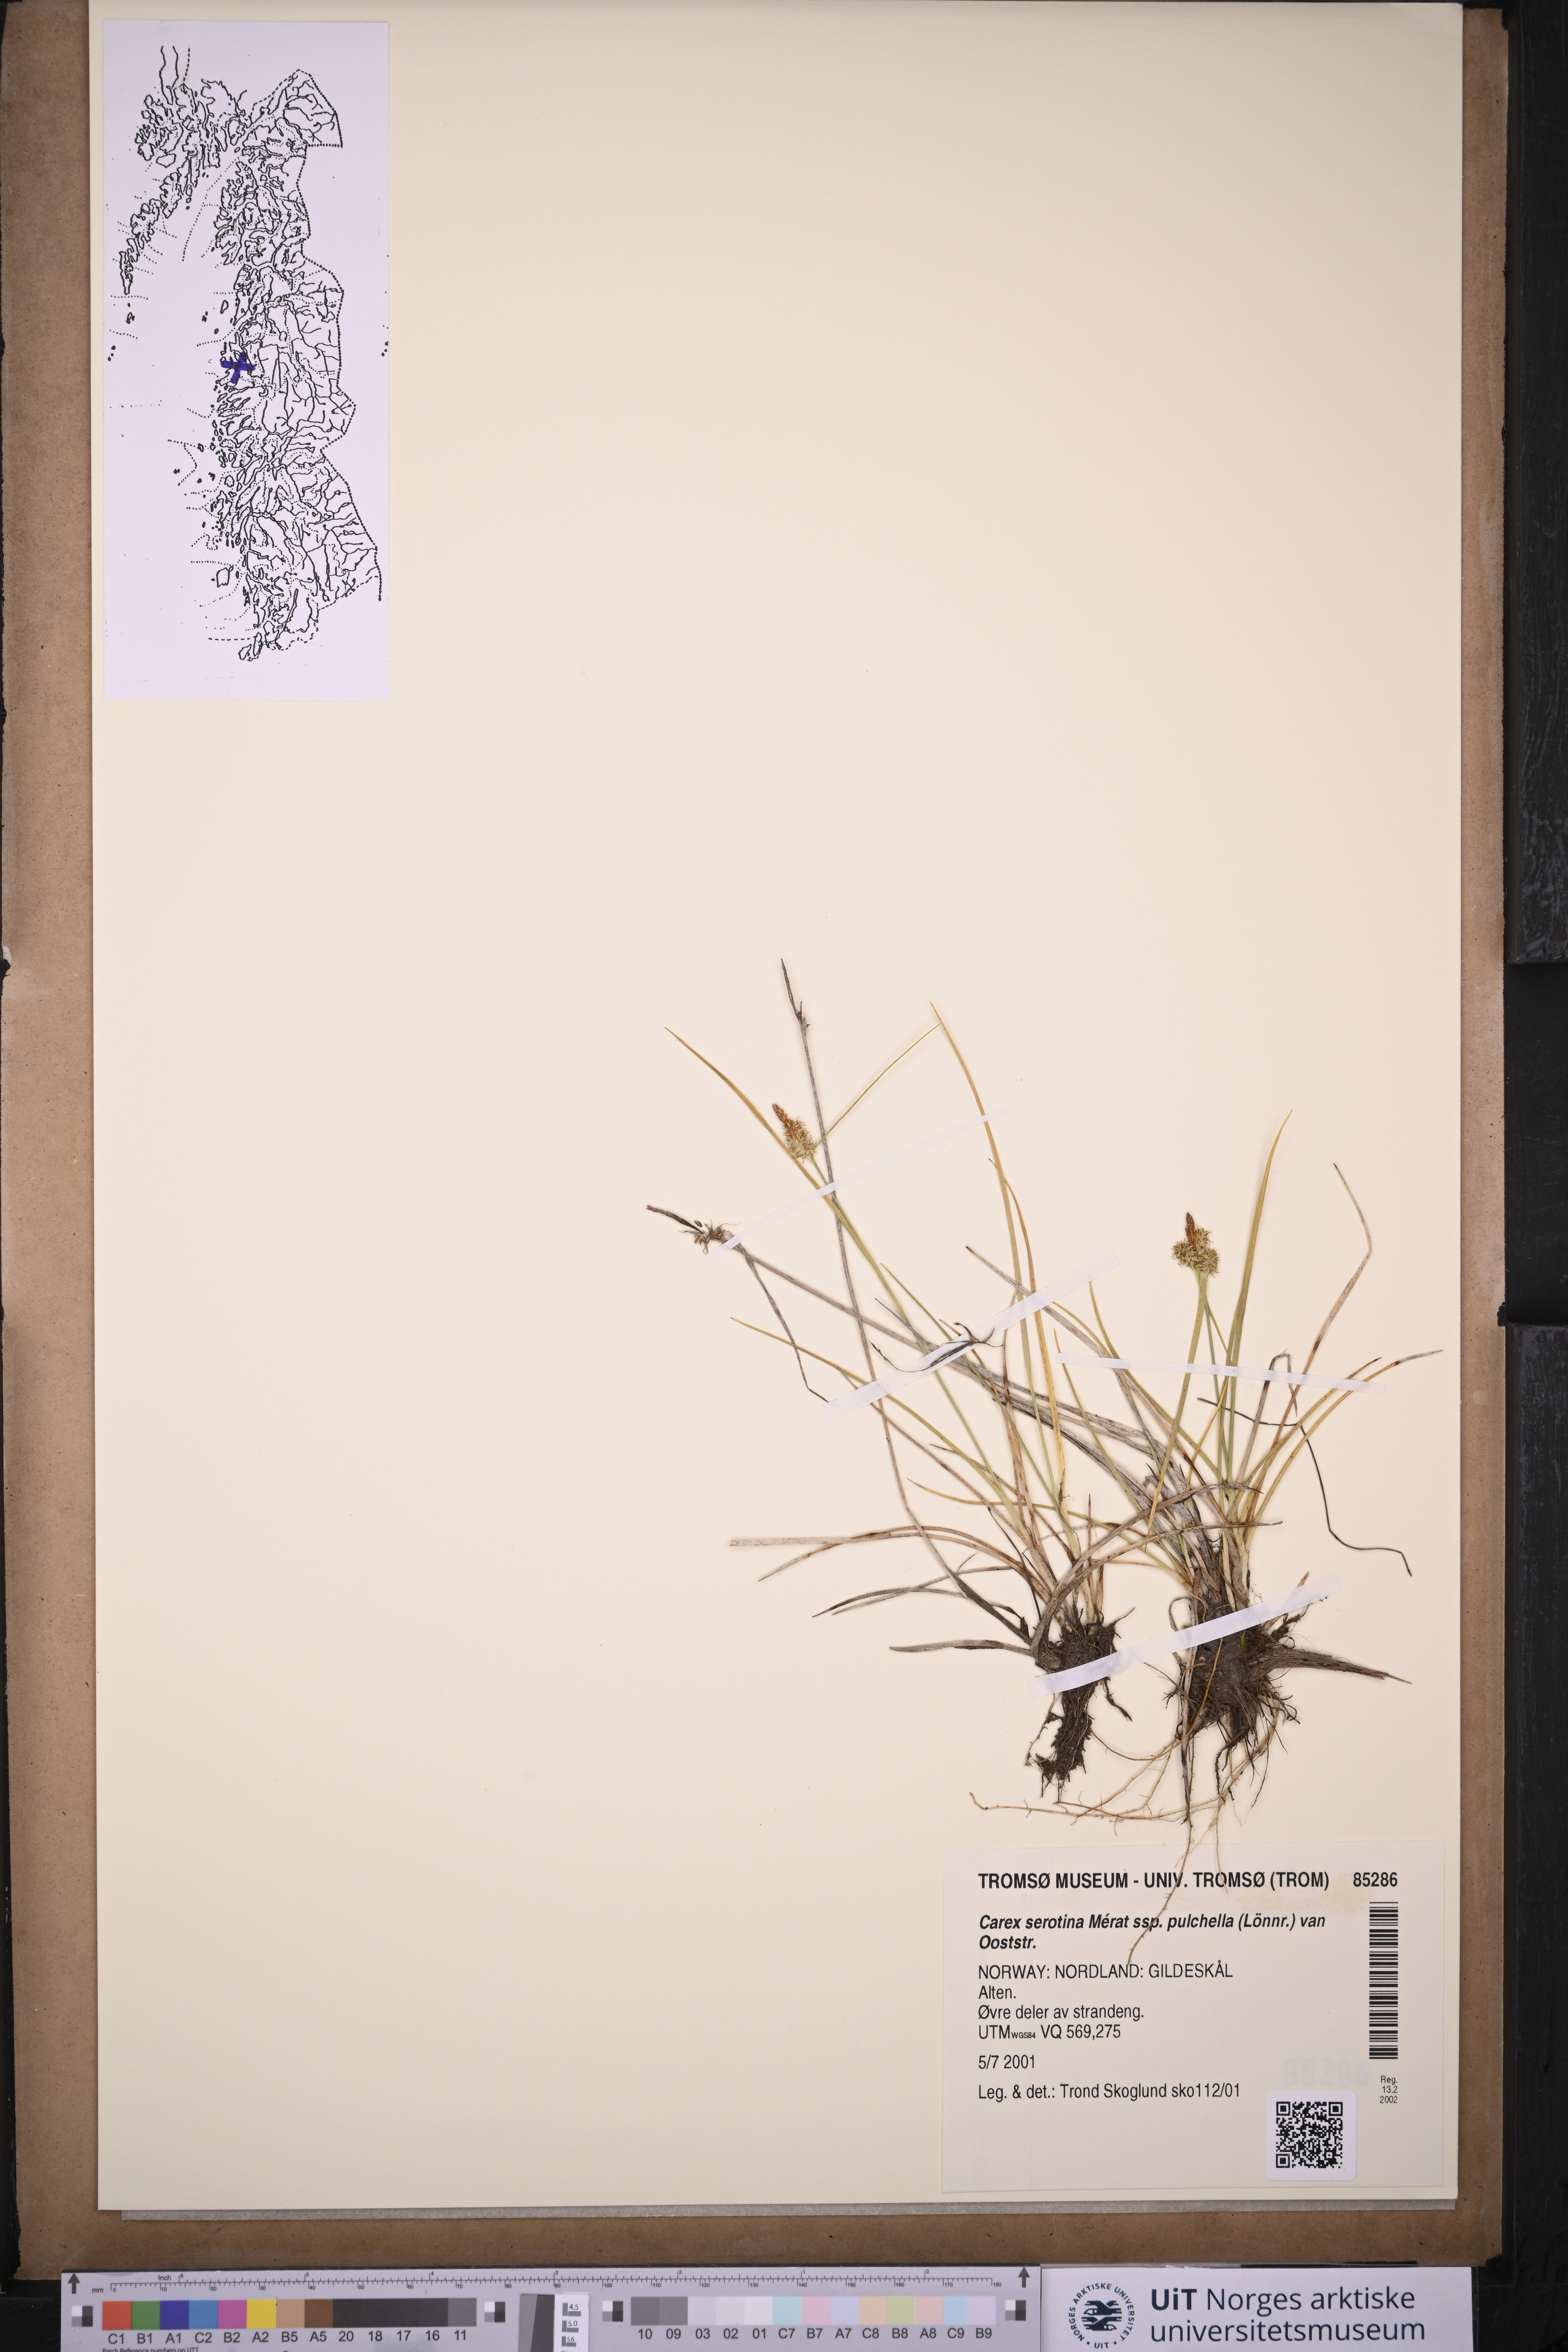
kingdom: Plantae
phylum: Tracheophyta
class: Liliopsida
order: Poales
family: Cyperaceae
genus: Carex
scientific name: Carex oederi
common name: Common & small-fruited yellow-sedge
